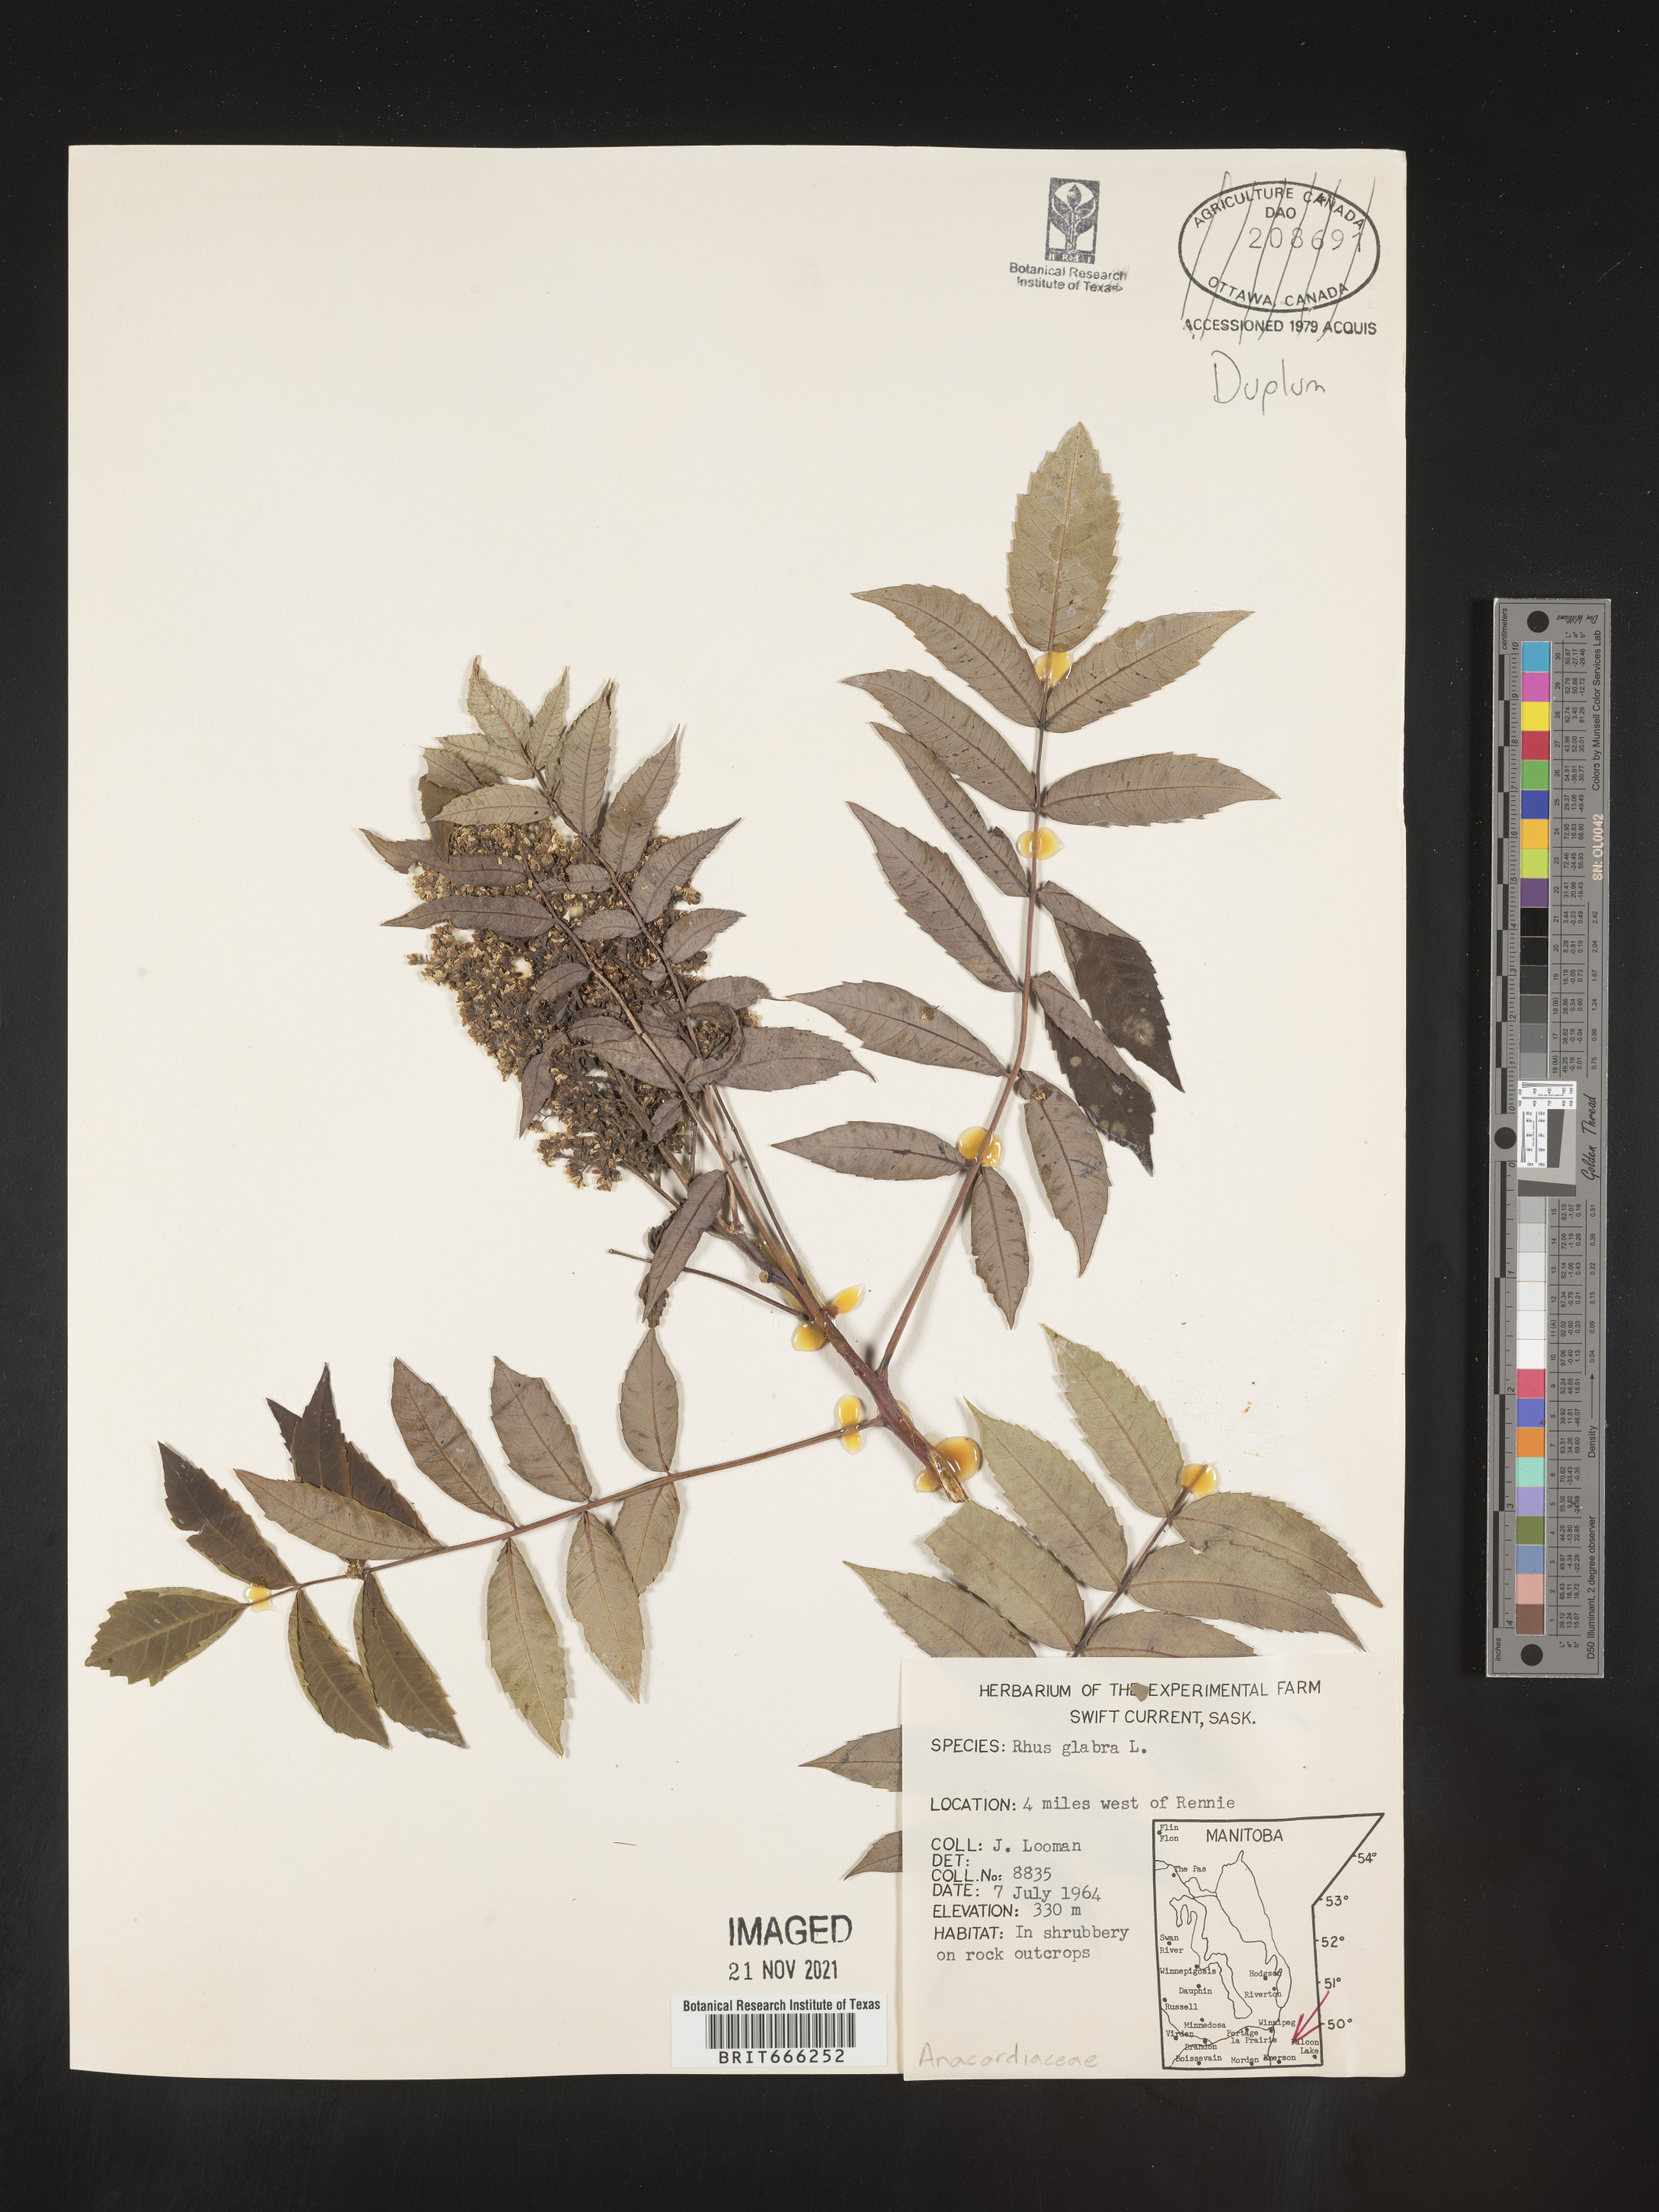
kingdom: Plantae
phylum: Tracheophyta
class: Magnoliopsida
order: Sapindales
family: Anacardiaceae
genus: Rhus
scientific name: Rhus glabra
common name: Scarlet sumac
